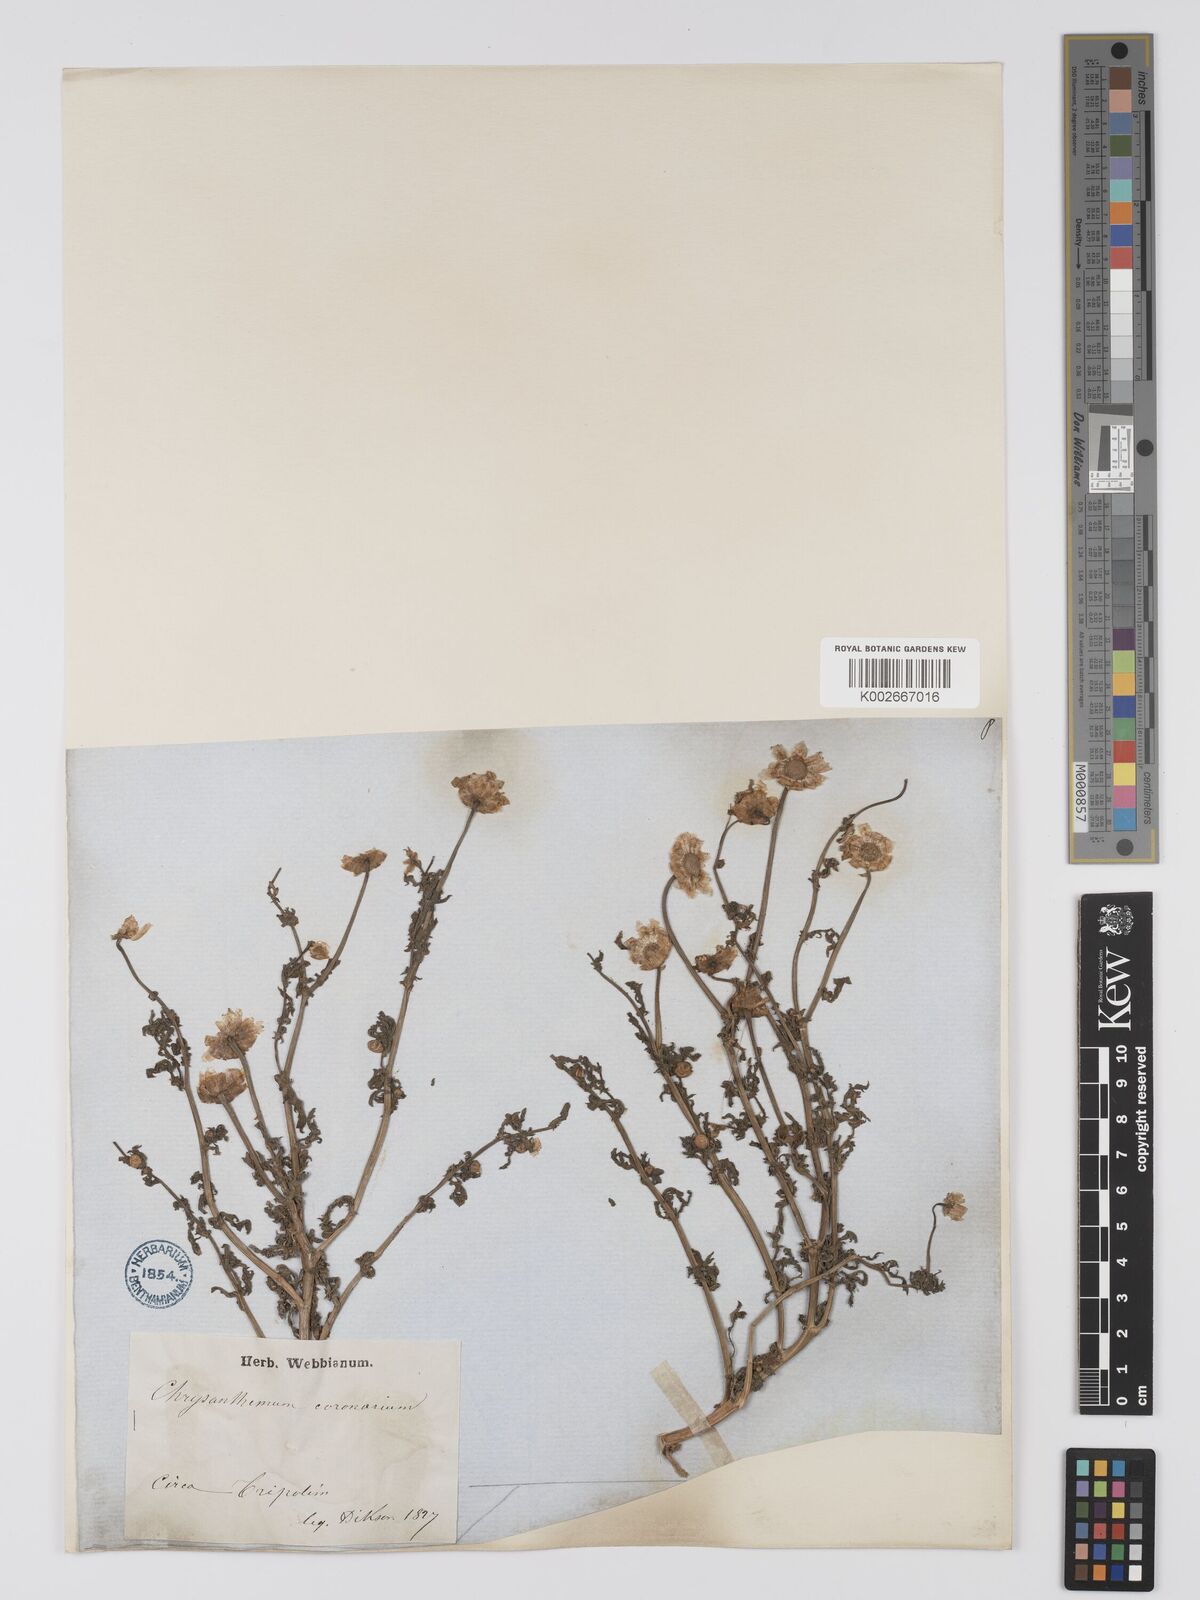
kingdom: Plantae
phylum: Tracheophyta
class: Magnoliopsida
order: Asterales
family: Asteraceae
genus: Glebionis
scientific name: Glebionis coronaria
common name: Crowndaisy
